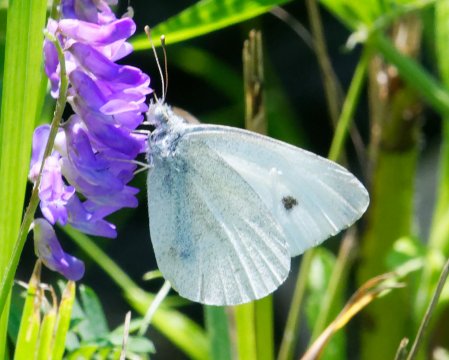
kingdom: Animalia
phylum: Arthropoda
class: Insecta
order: Lepidoptera
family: Pieridae
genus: Pieris
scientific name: Pieris rapae
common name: Cabbage White
